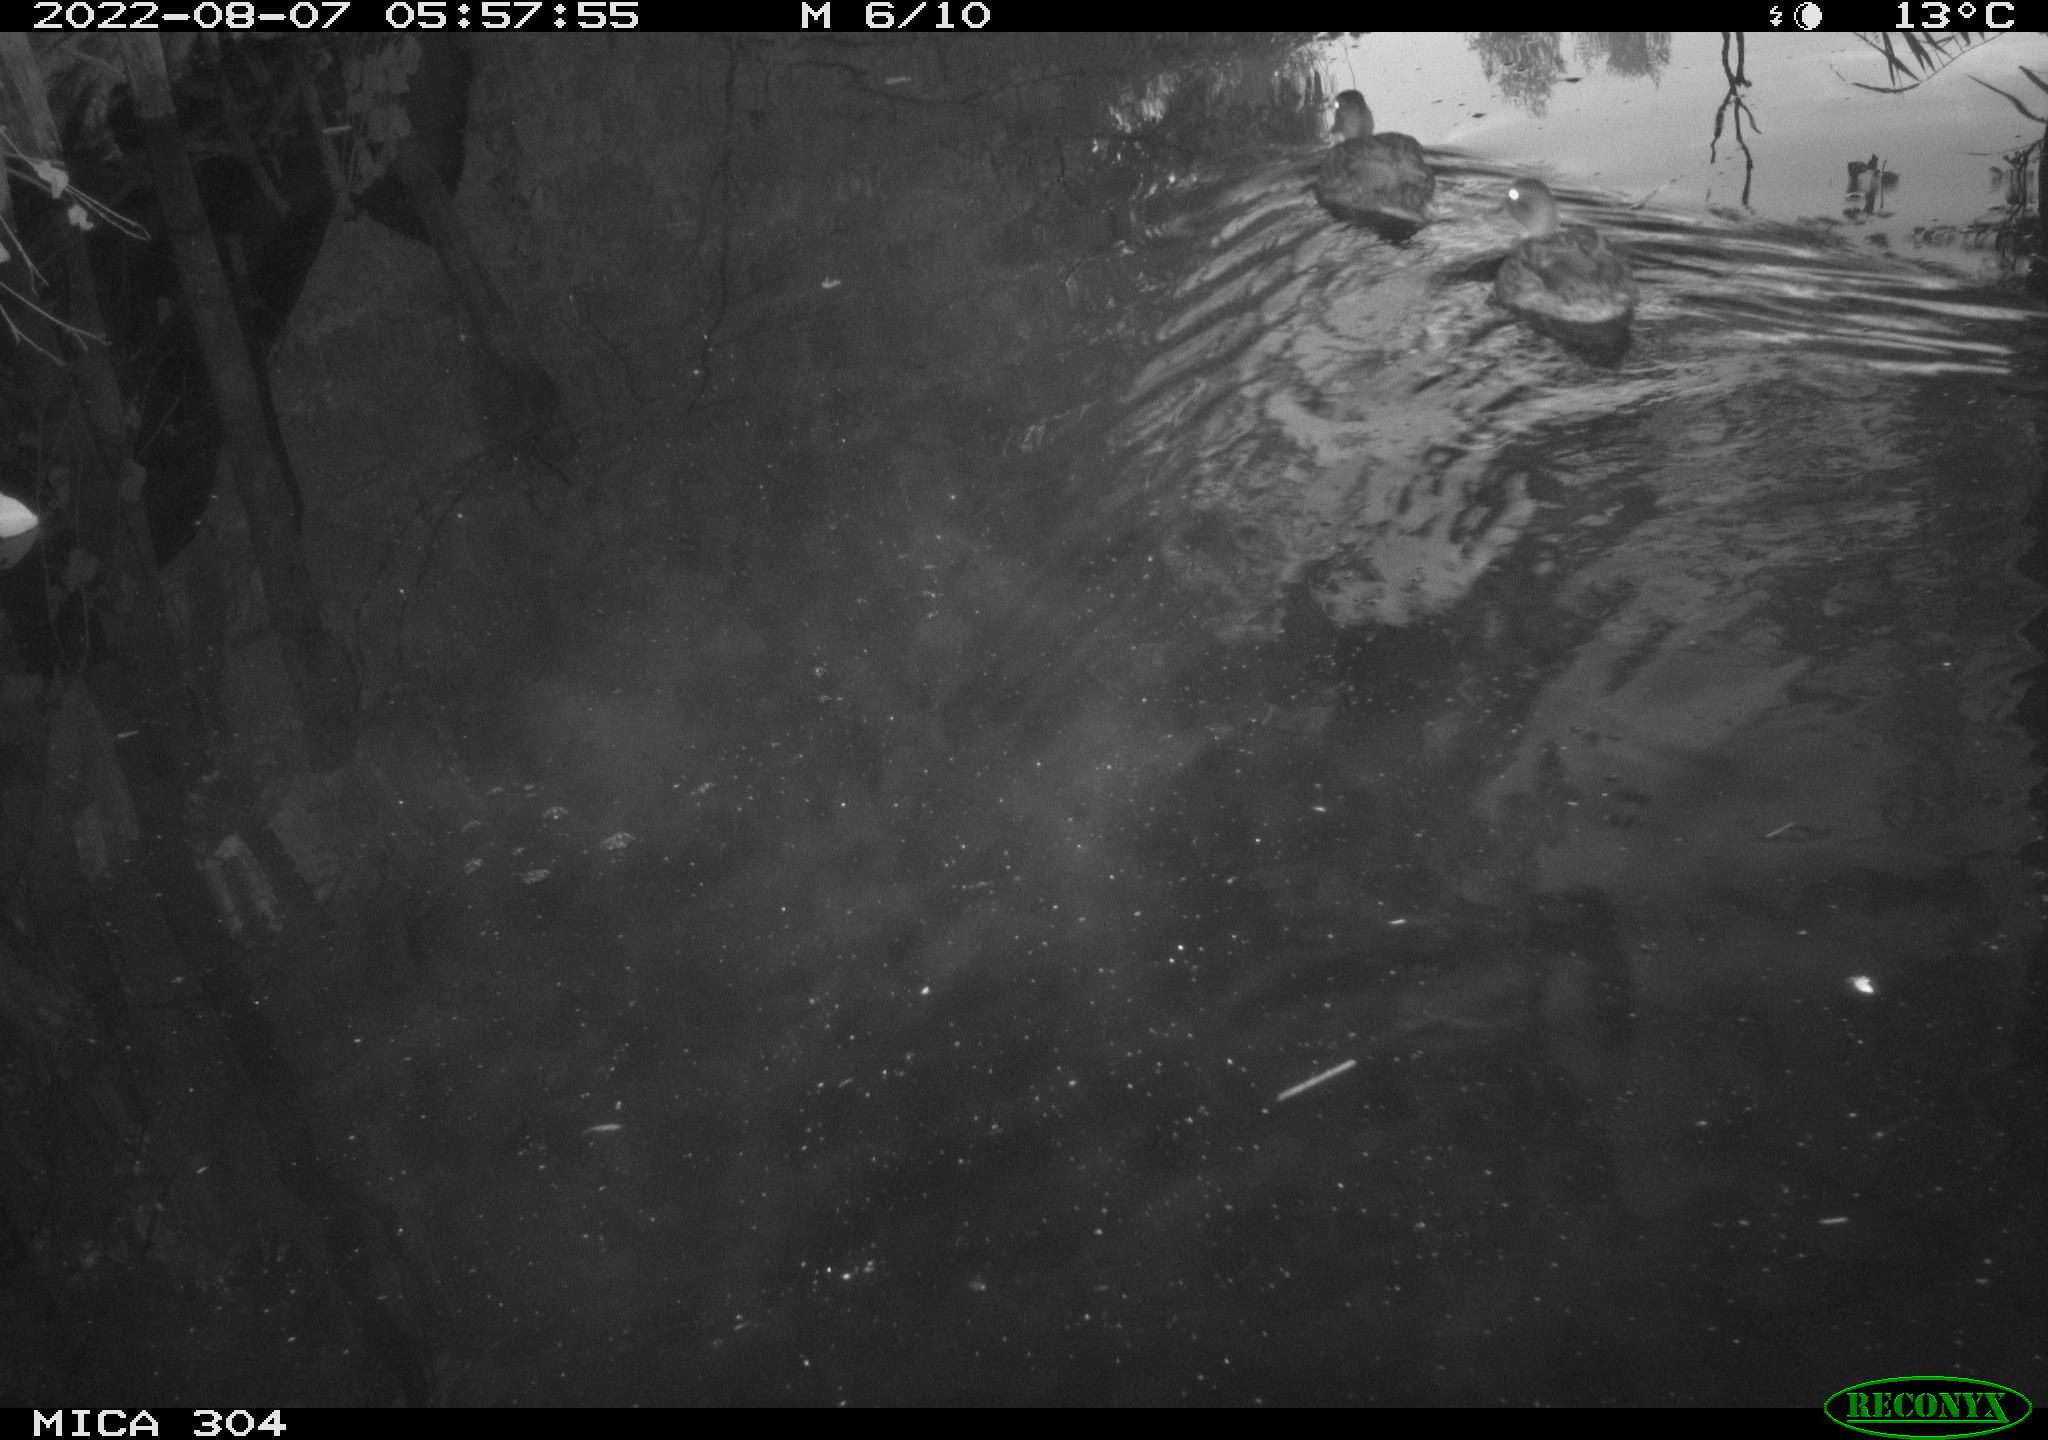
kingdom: Animalia
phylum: Chordata
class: Aves
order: Anseriformes
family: Anatidae
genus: Anas
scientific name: Anas platyrhynchos
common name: Mallard
